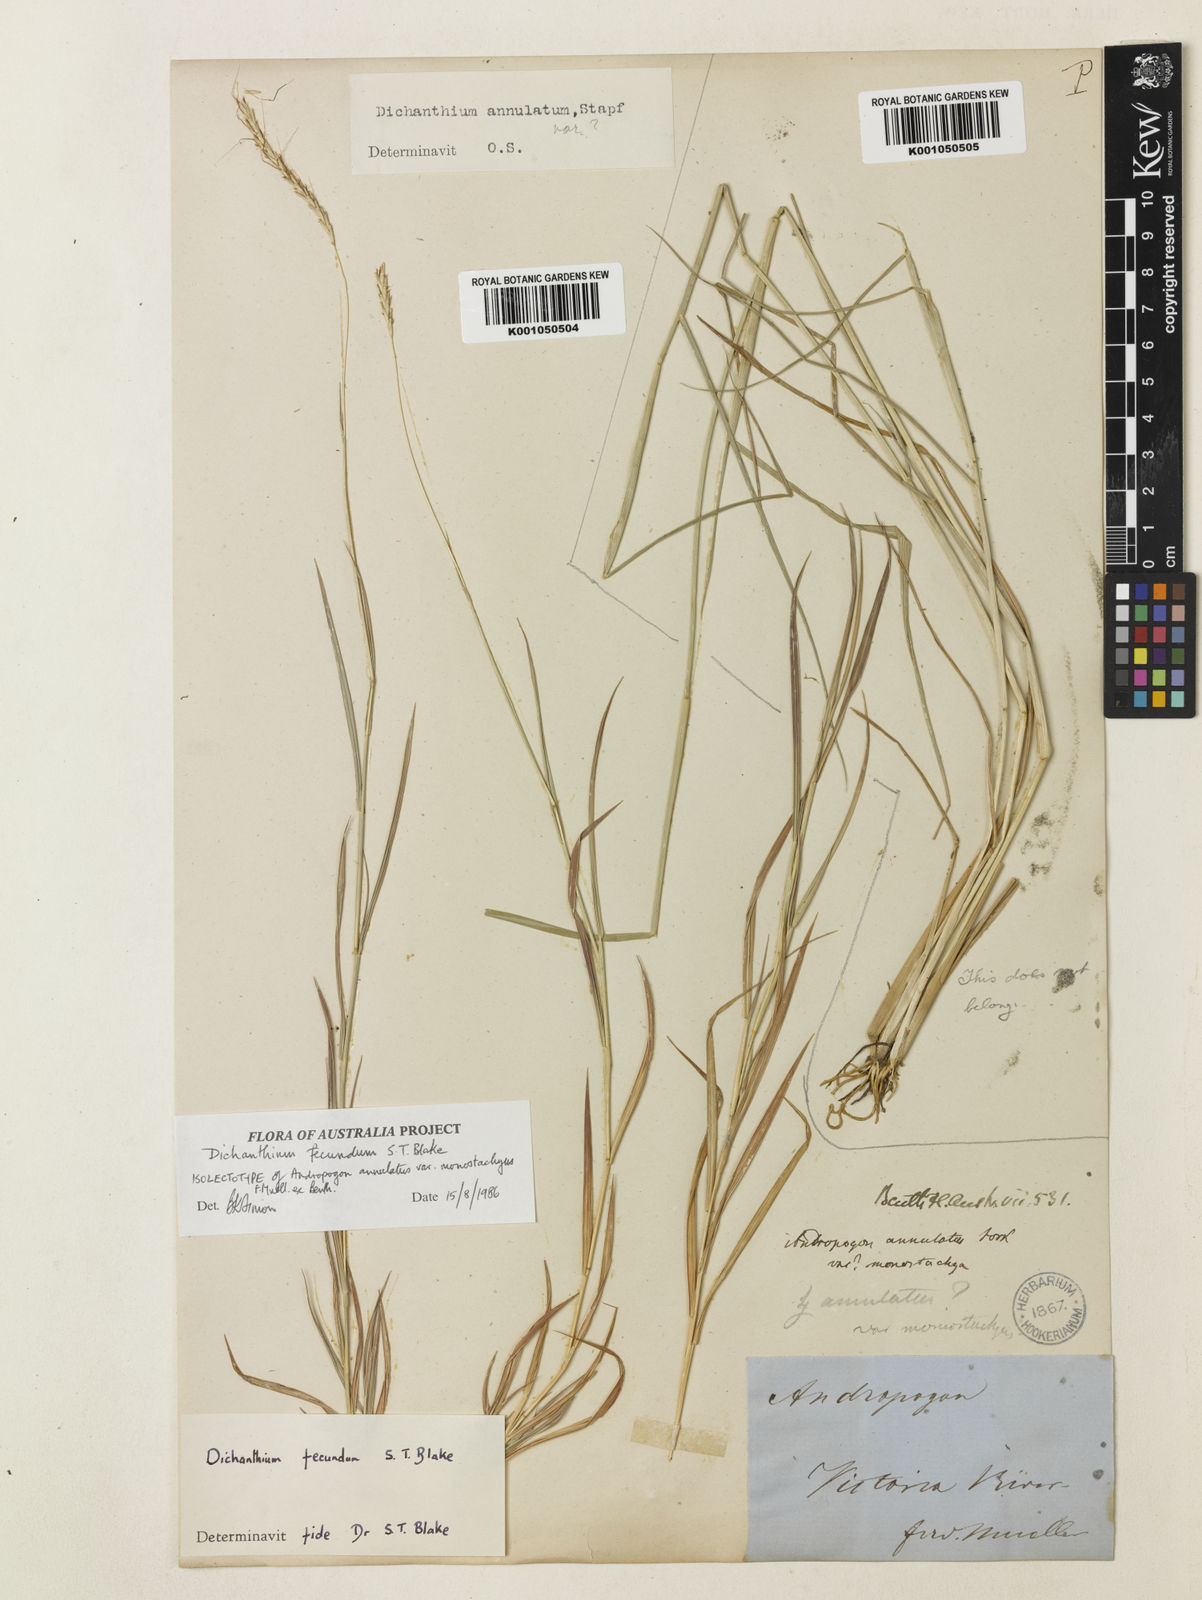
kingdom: Plantae
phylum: Tracheophyta
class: Liliopsida
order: Poales
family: Poaceae
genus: Dichanthium
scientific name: Dichanthium annulatum
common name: Kleberg's bluestem
